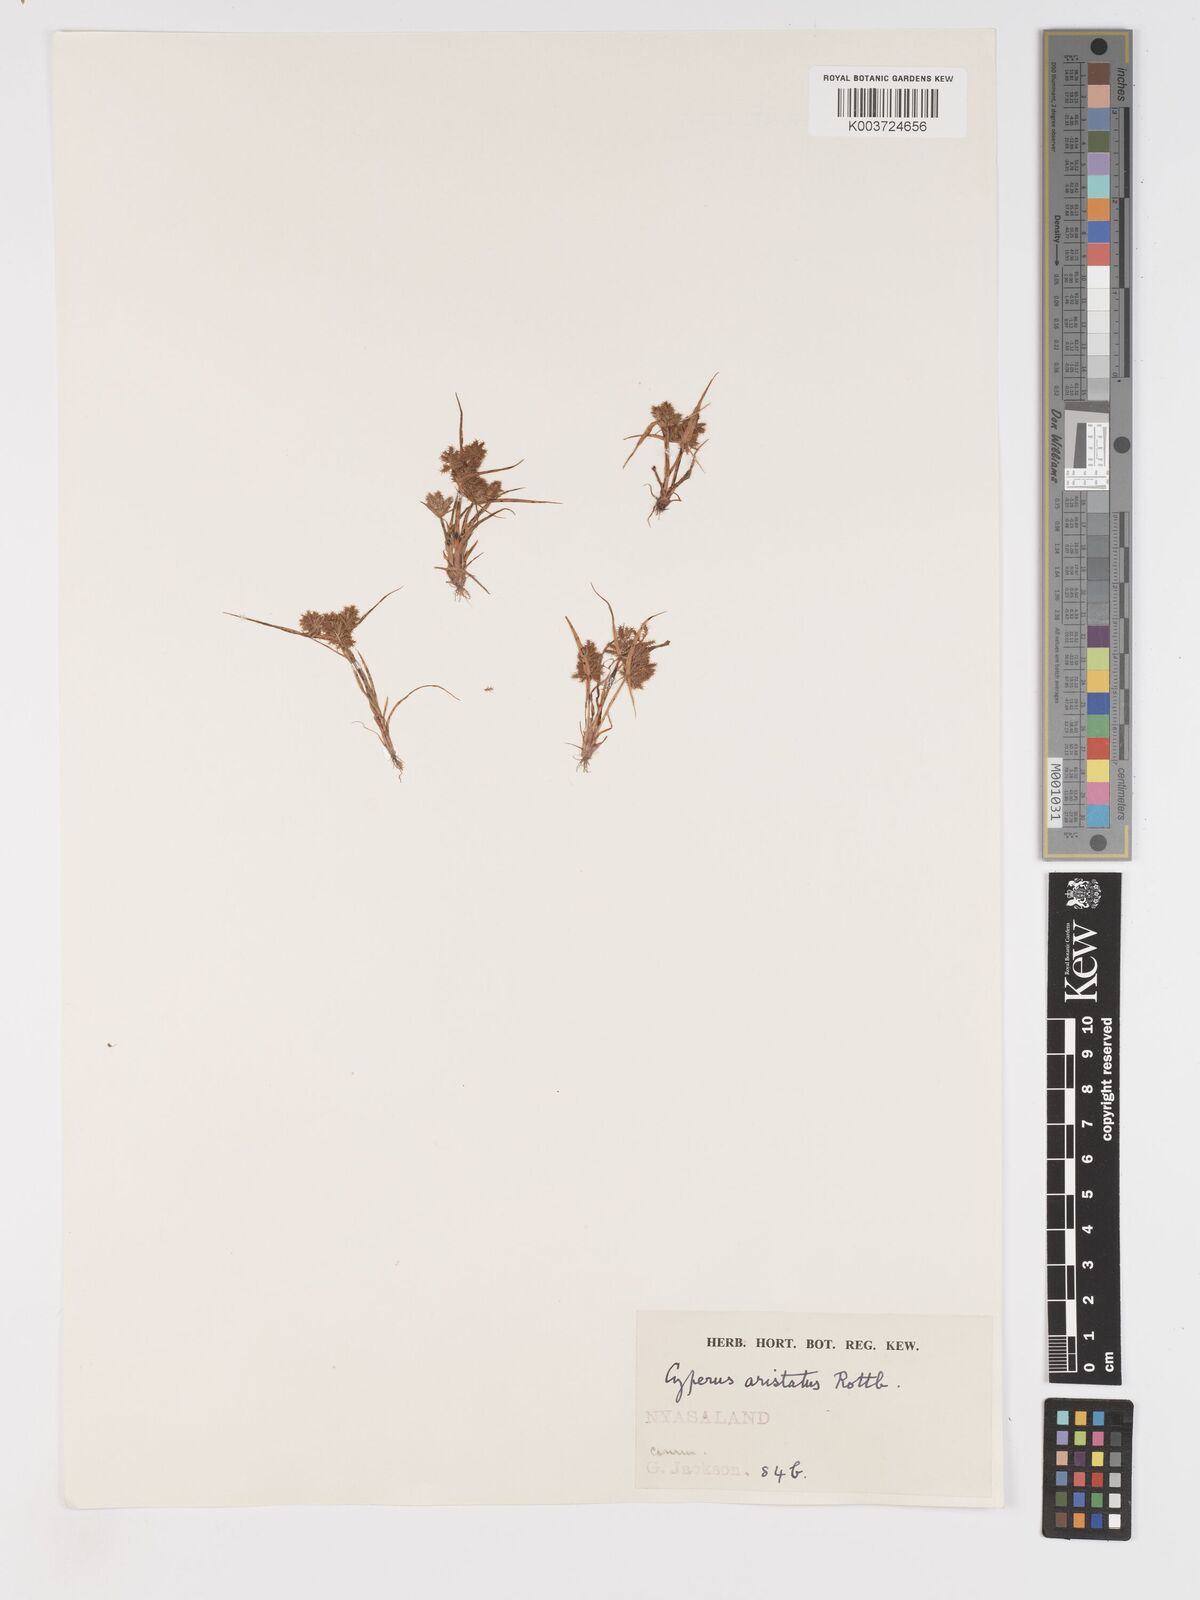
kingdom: Plantae
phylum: Tracheophyta
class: Liliopsida
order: Poales
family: Cyperaceae
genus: Cyperus
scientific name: Cyperus squarrosus
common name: Awned cyperus
